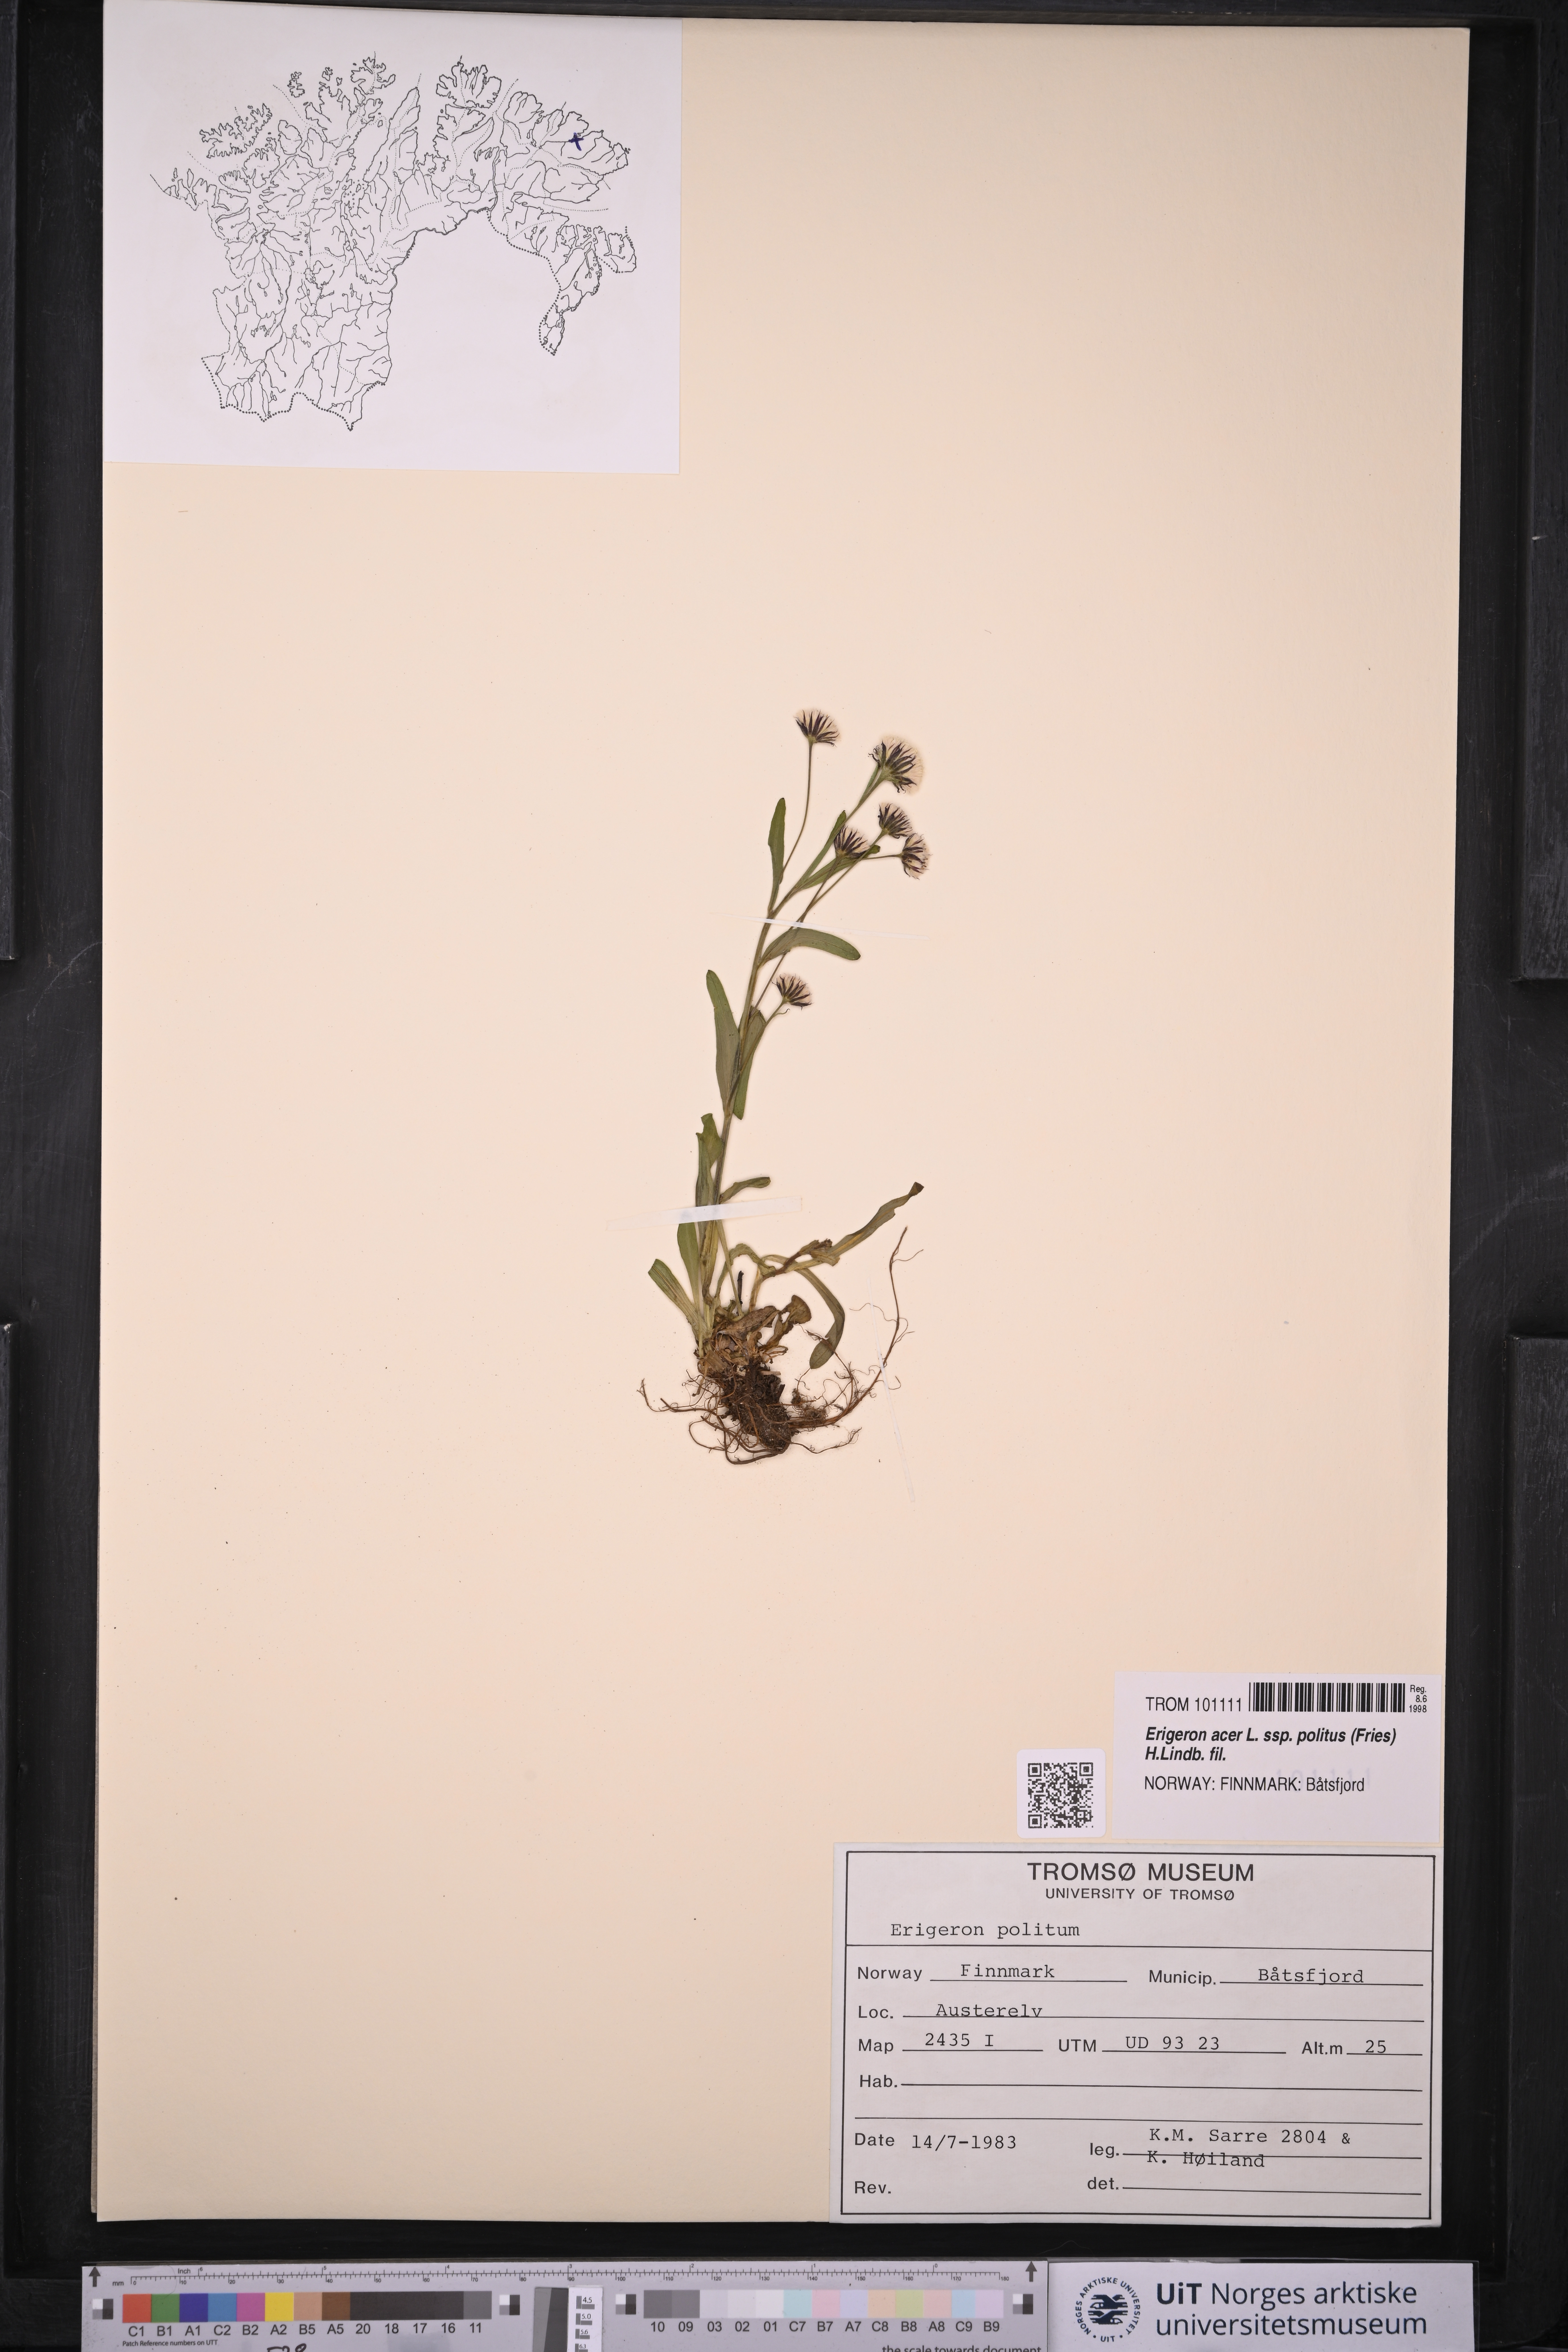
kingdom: Plantae
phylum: Tracheophyta
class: Magnoliopsida
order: Asterales
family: Asteraceae
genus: Erigeron
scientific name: Erigeron politus
